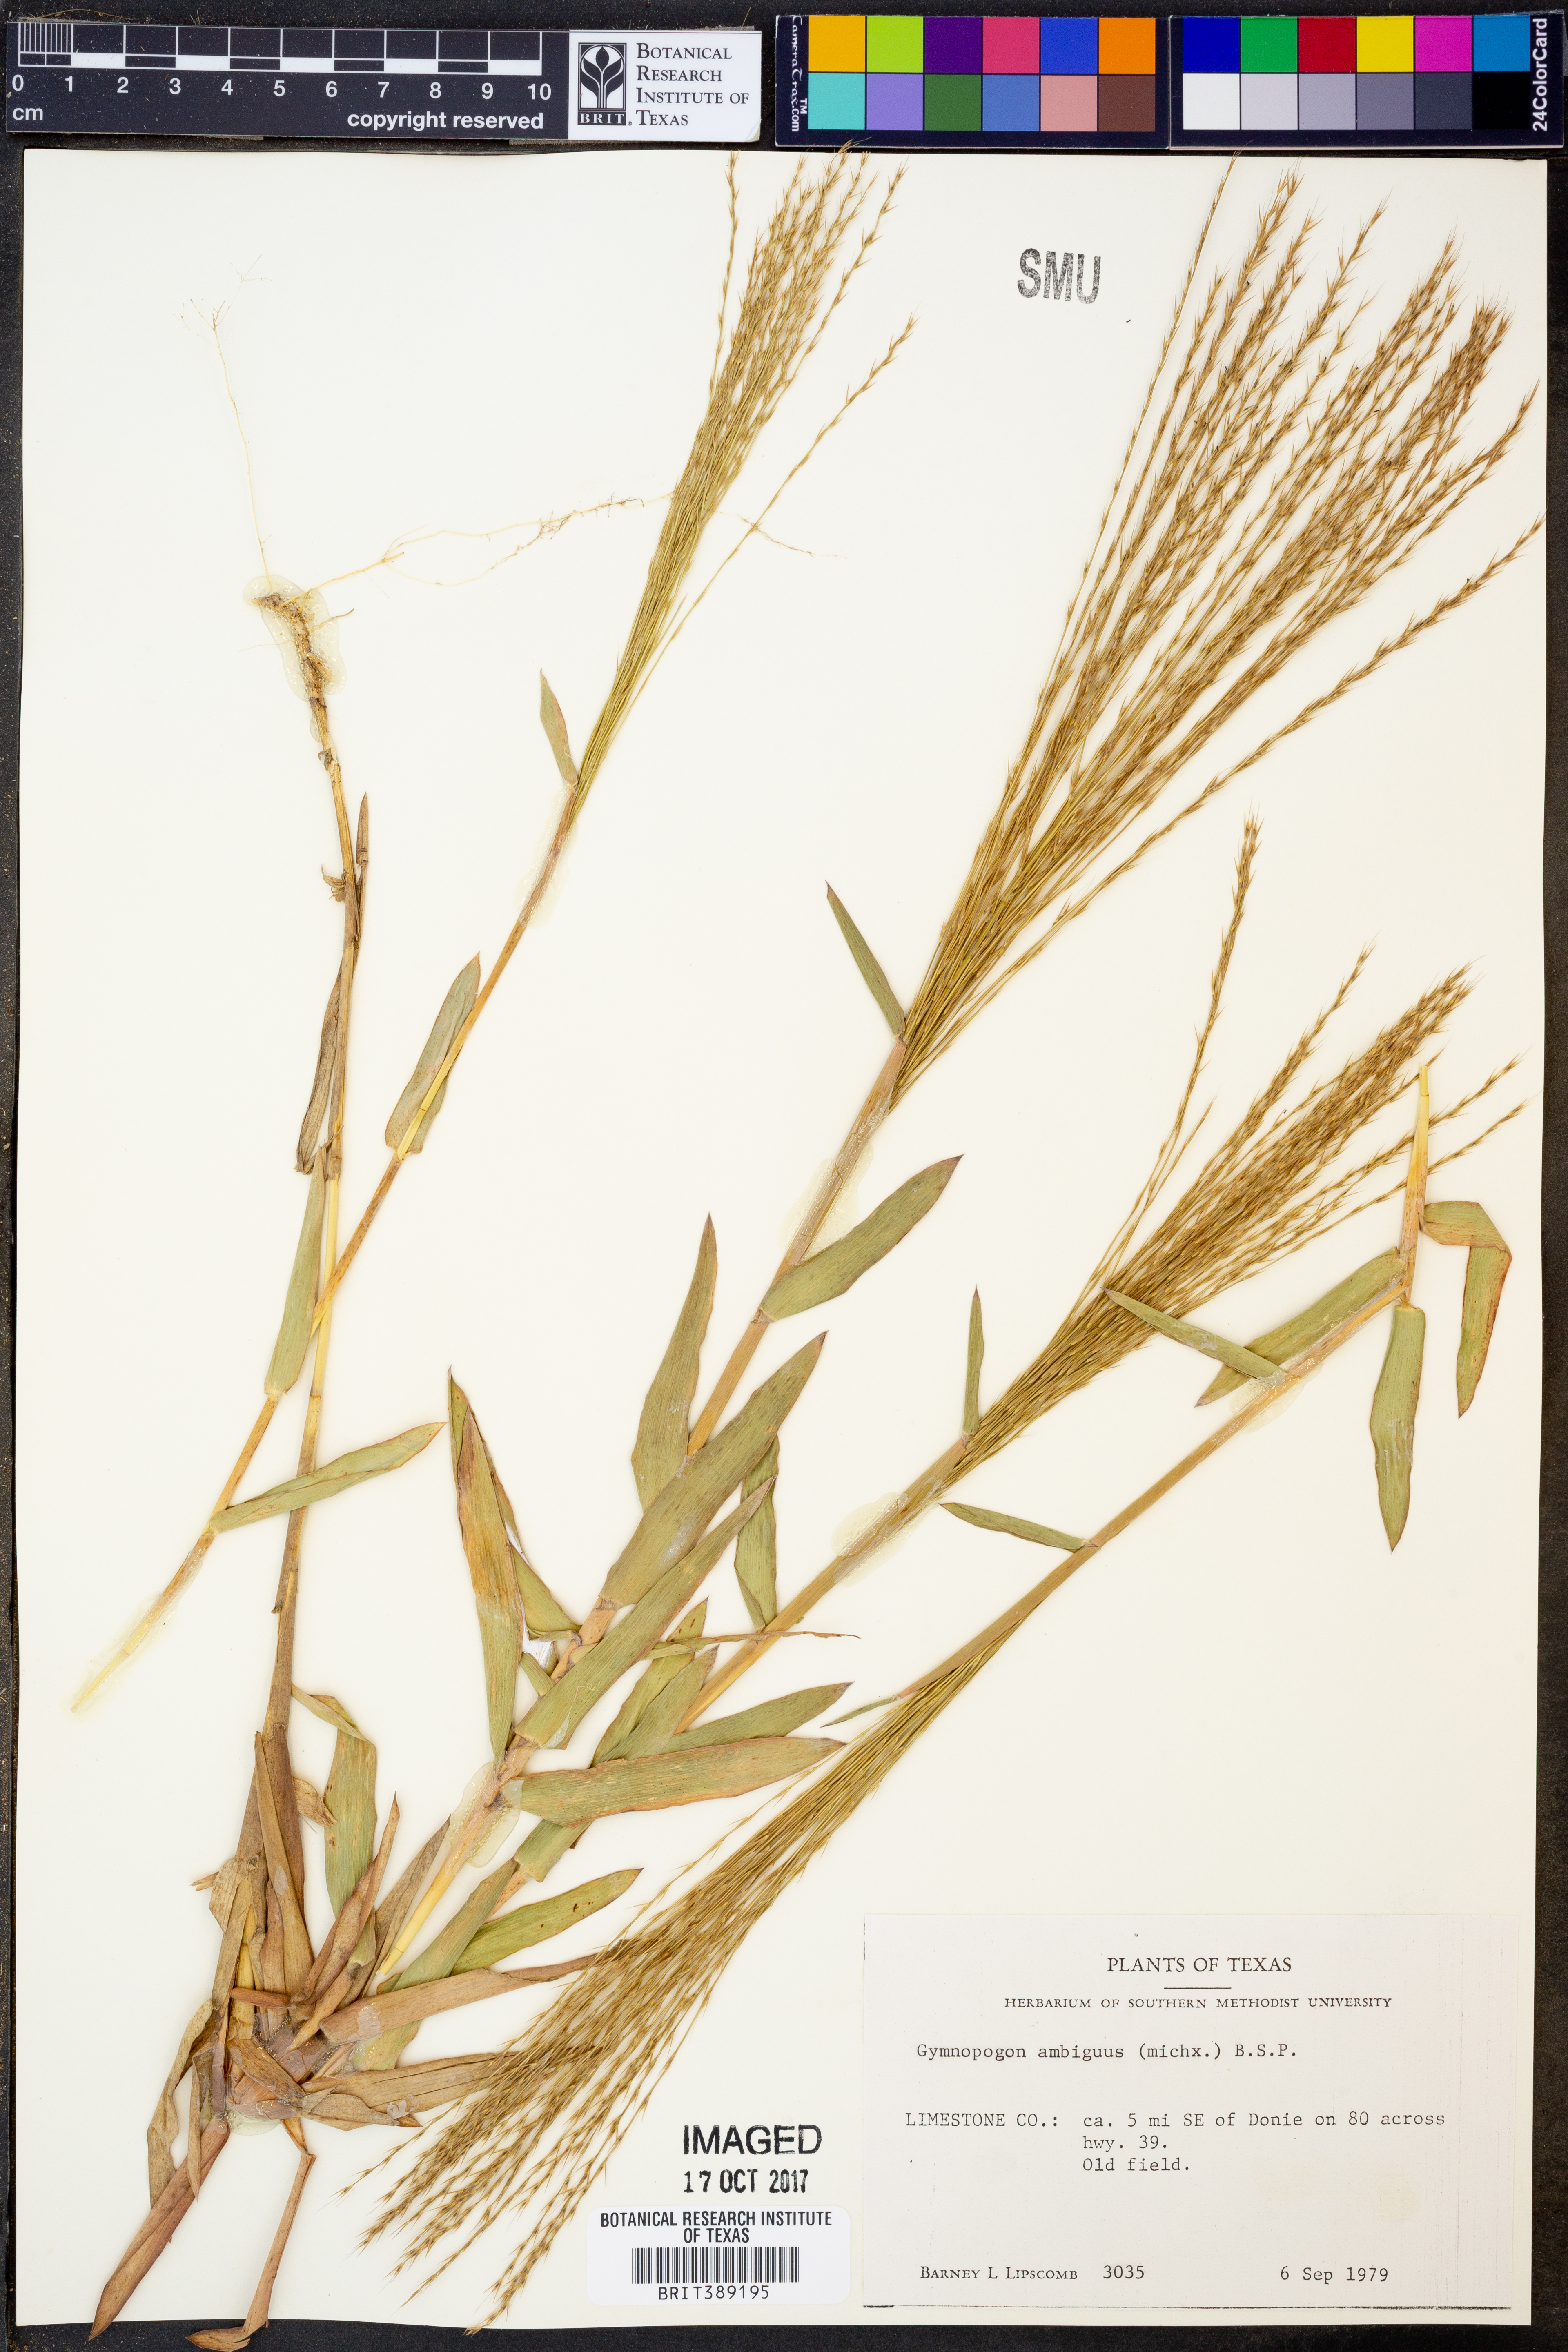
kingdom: Plantae
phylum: Tracheophyta
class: Liliopsida
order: Poales
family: Poaceae
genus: Gymnopogon
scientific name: Gymnopogon ambiguus
